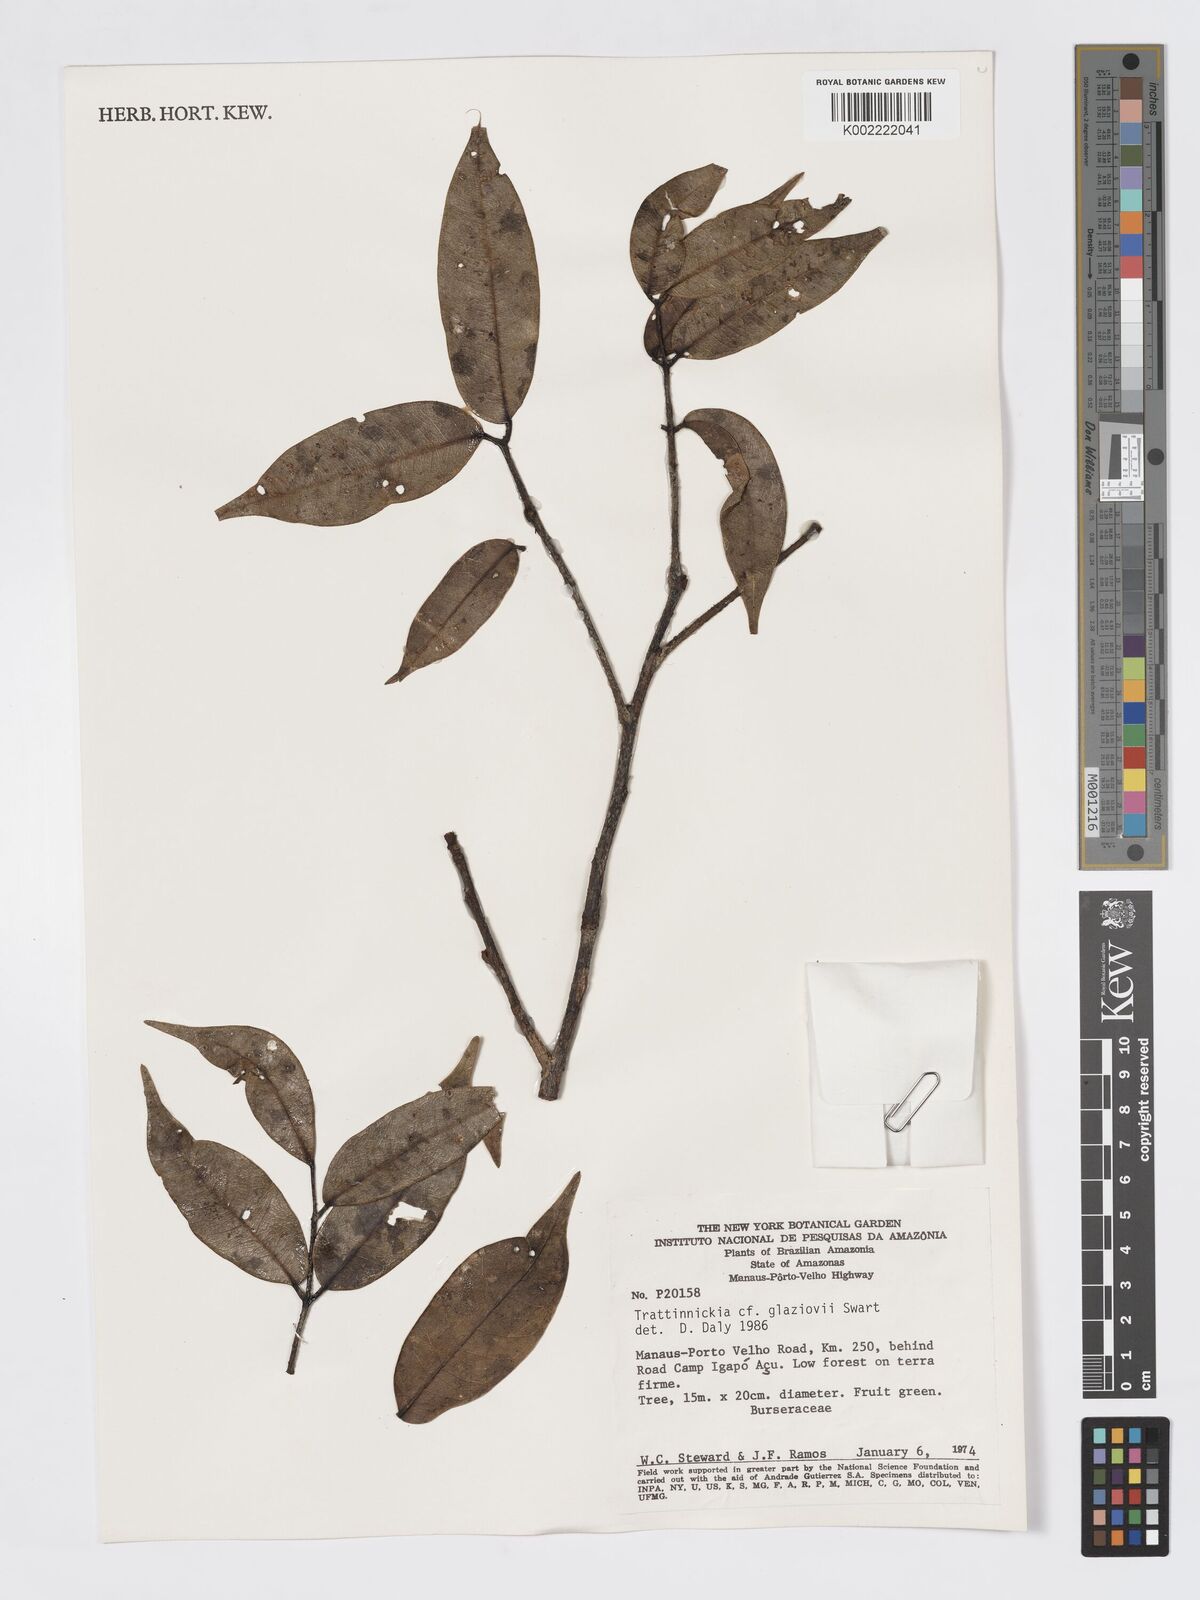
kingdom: Plantae
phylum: Tracheophyta
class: Magnoliopsida
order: Sapindales
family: Burseraceae
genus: Trattinnickia
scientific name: Trattinnickia glaziovii
